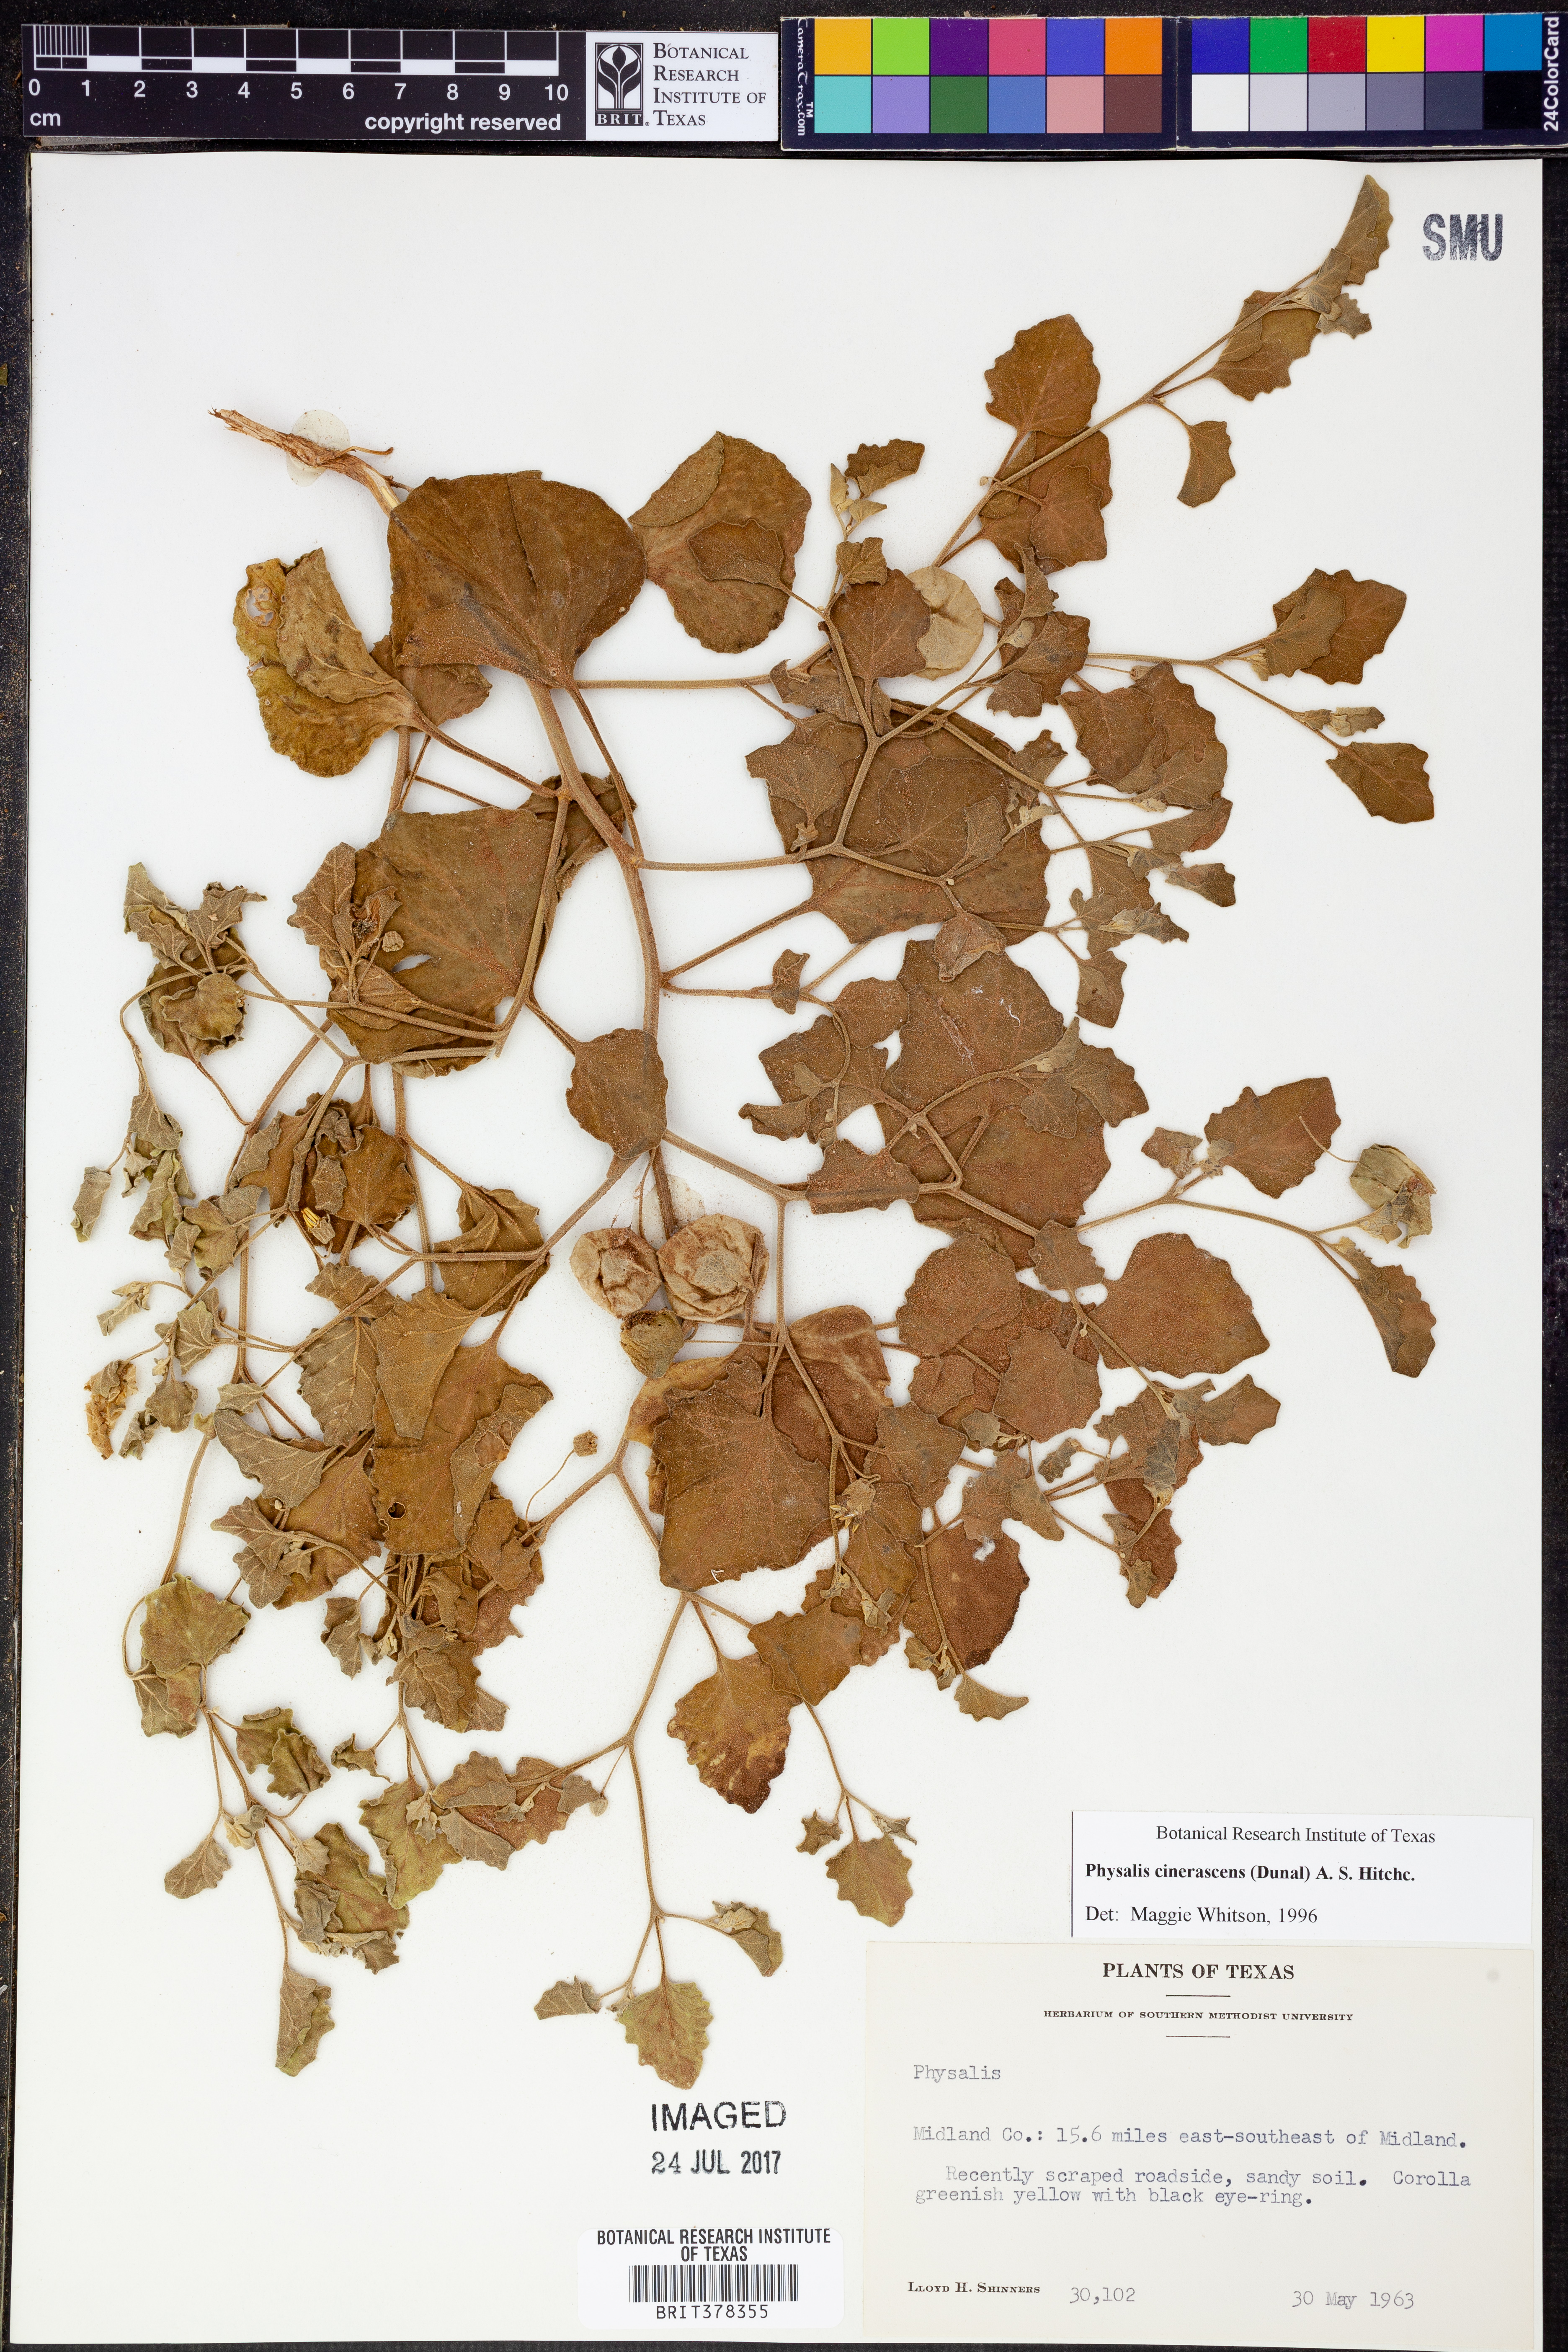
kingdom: Plantae
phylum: Tracheophyta
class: Magnoliopsida
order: Solanales
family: Solanaceae
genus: Physalis
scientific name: Physalis cinerascens
